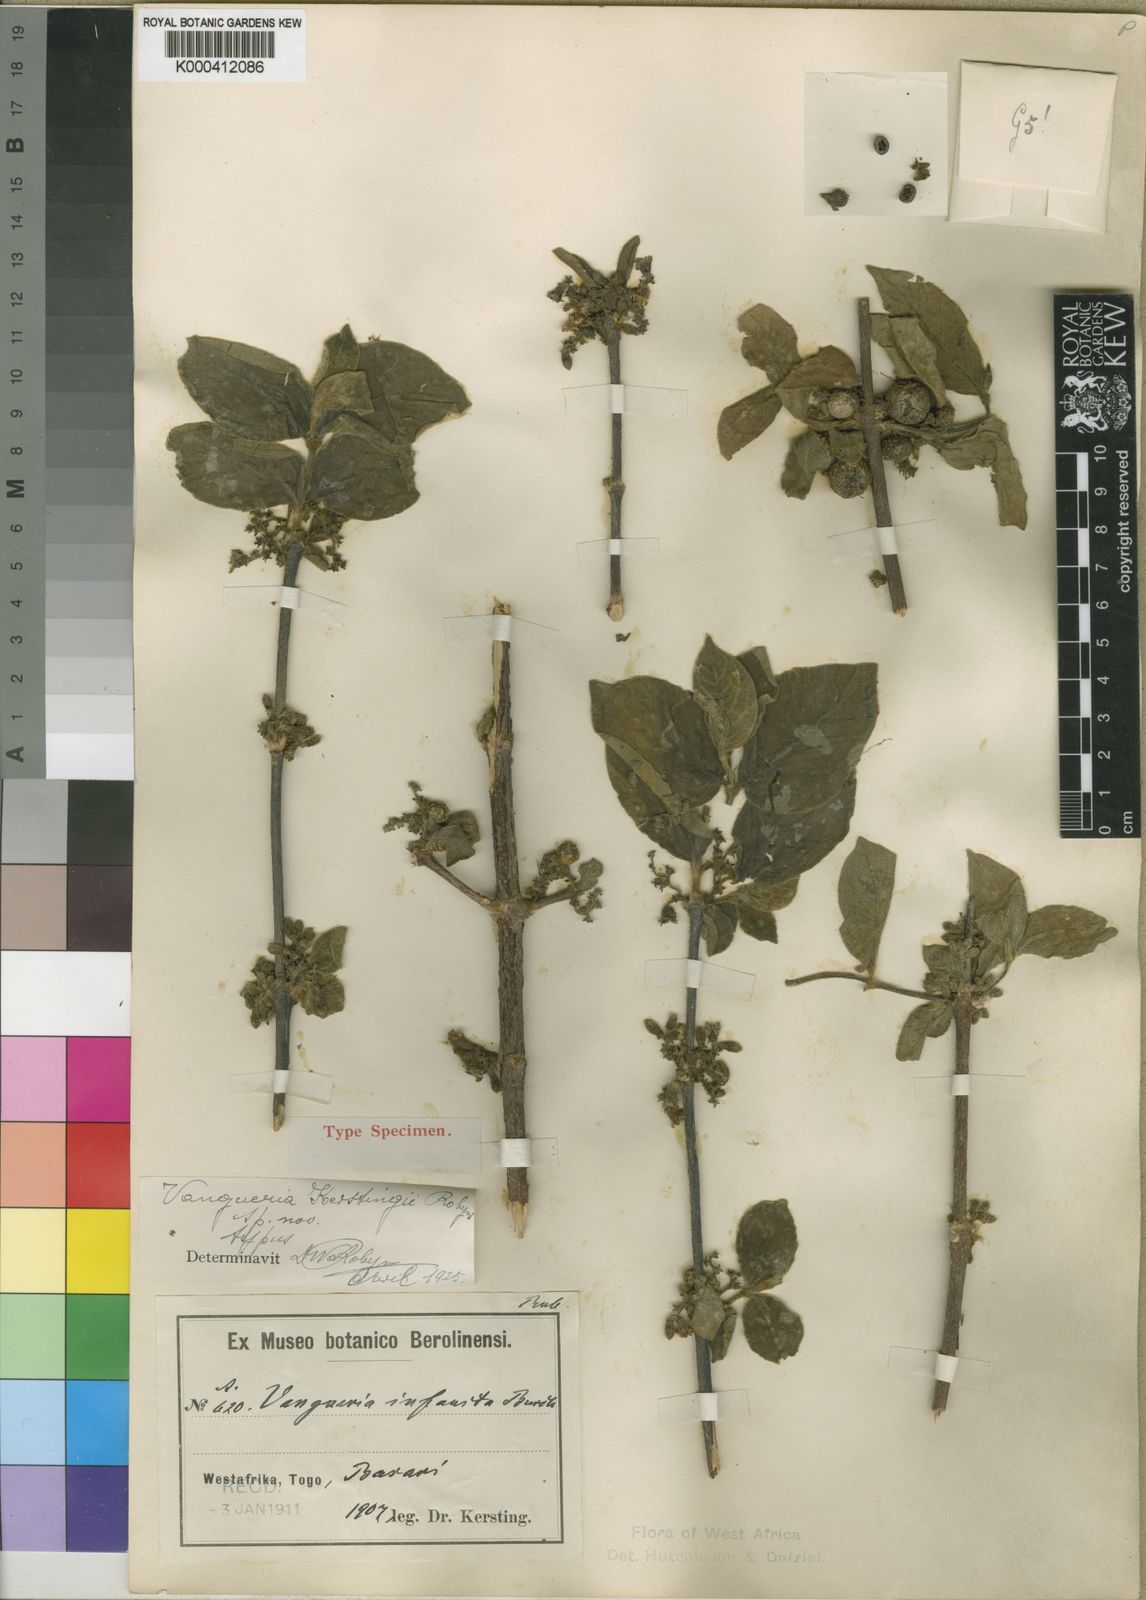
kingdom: Plantae
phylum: Tracheophyta
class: Magnoliopsida
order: Gentianales
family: Rubiaceae
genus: Vangueria
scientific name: Vangueria kerstingii
